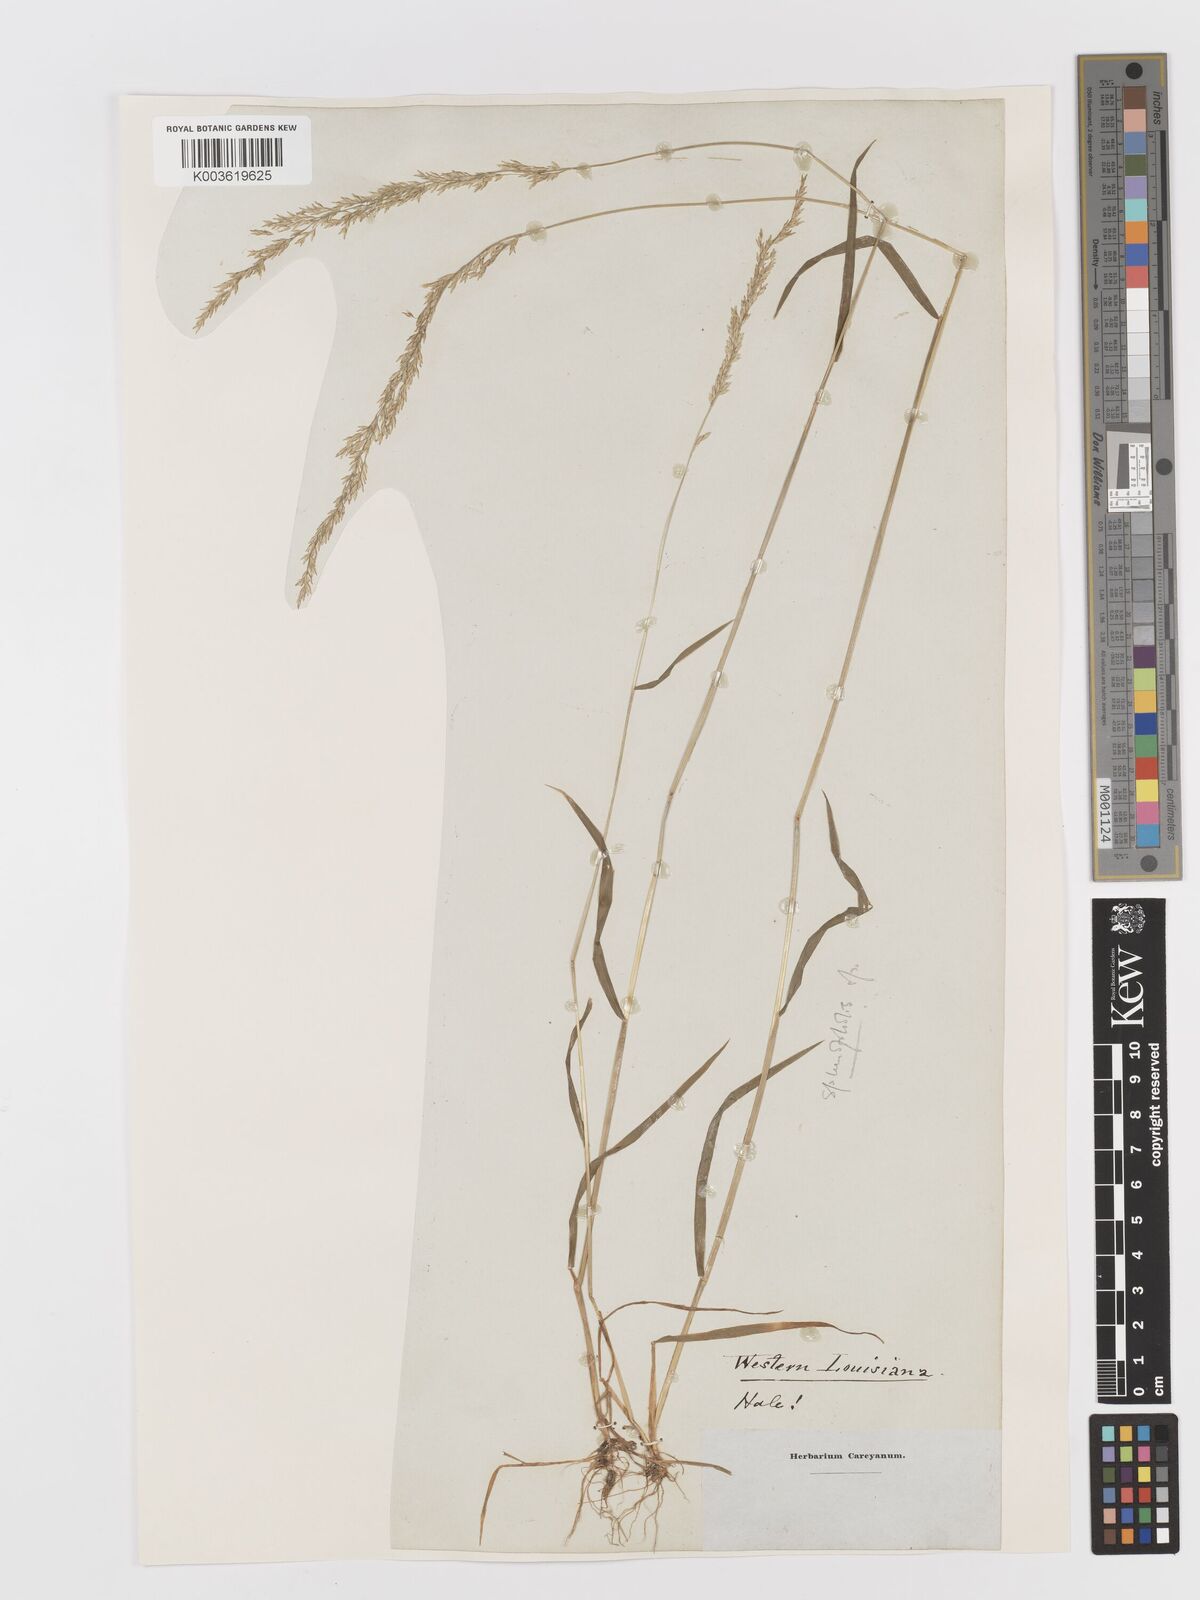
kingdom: Plantae
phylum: Tracheophyta
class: Liliopsida
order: Poales
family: Poaceae
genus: Sphenopholis
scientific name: Sphenopholis obtusata
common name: Prairie grass
